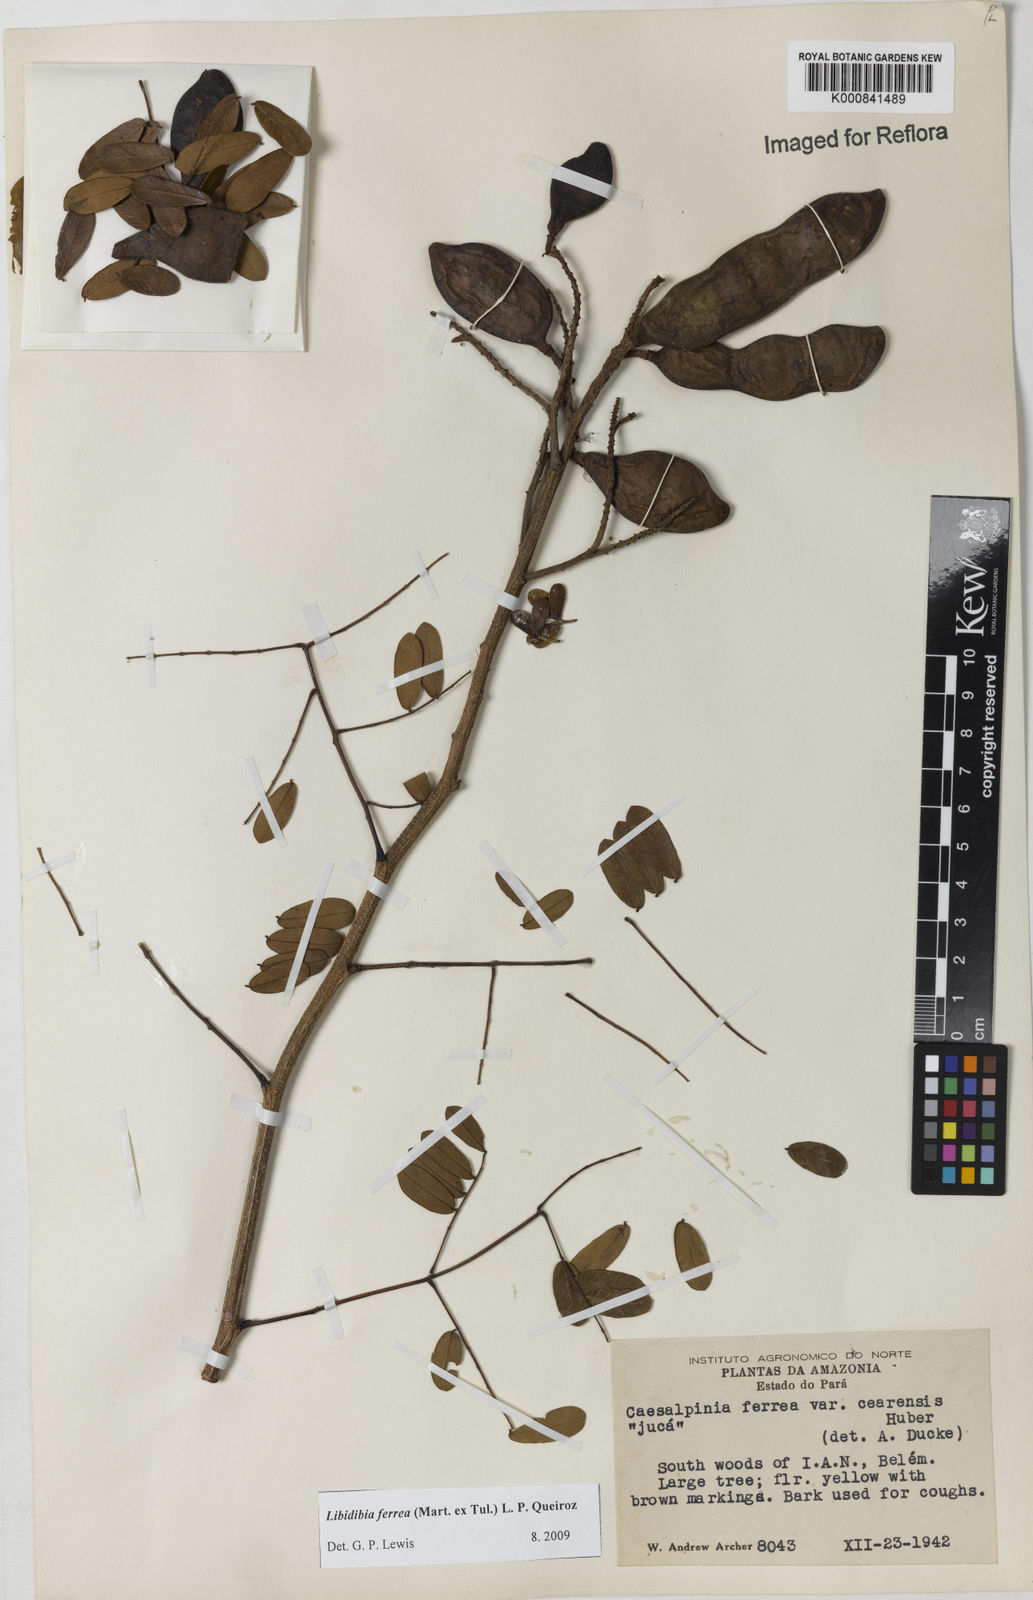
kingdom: Plantae
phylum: Tracheophyta
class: Magnoliopsida
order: Fabales
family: Fabaceae
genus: Libidibia
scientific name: Libidibia ferrea
